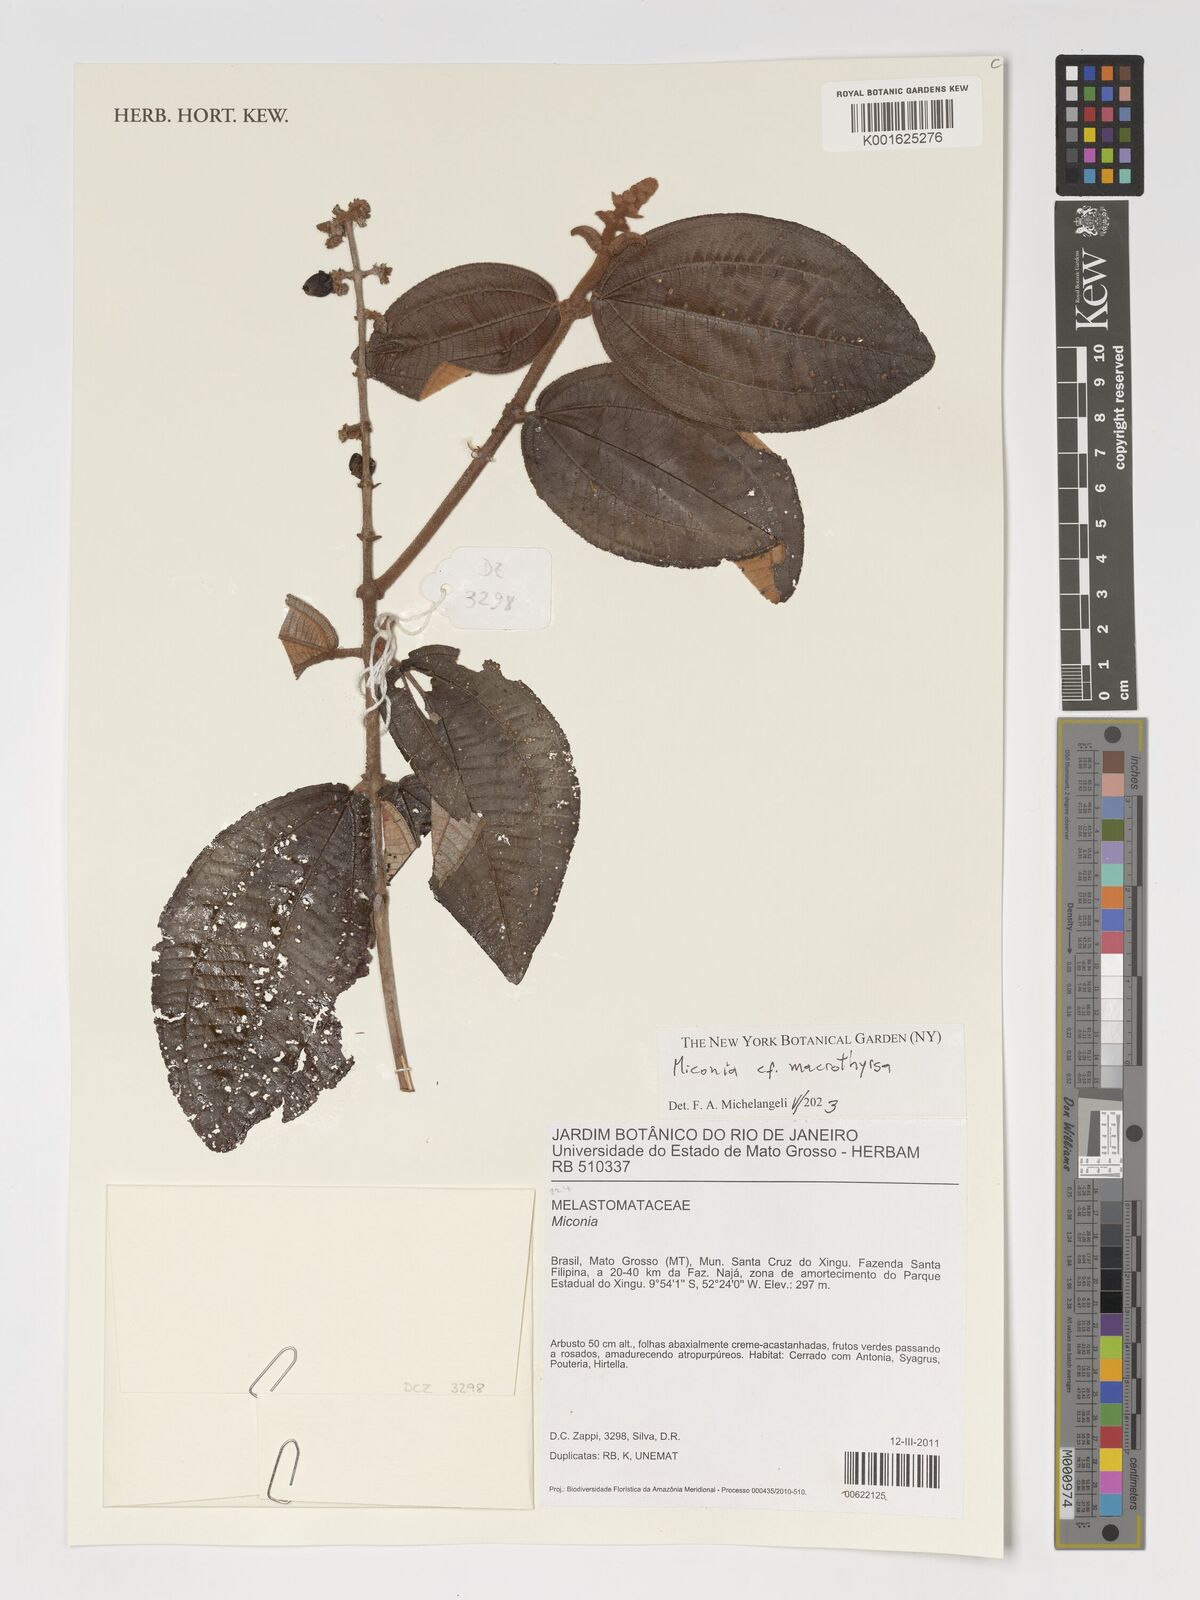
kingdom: Plantae
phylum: Tracheophyta
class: Magnoliopsida
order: Myrtales
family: Melastomataceae
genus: Miconia
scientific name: Miconia macrothyrsa
